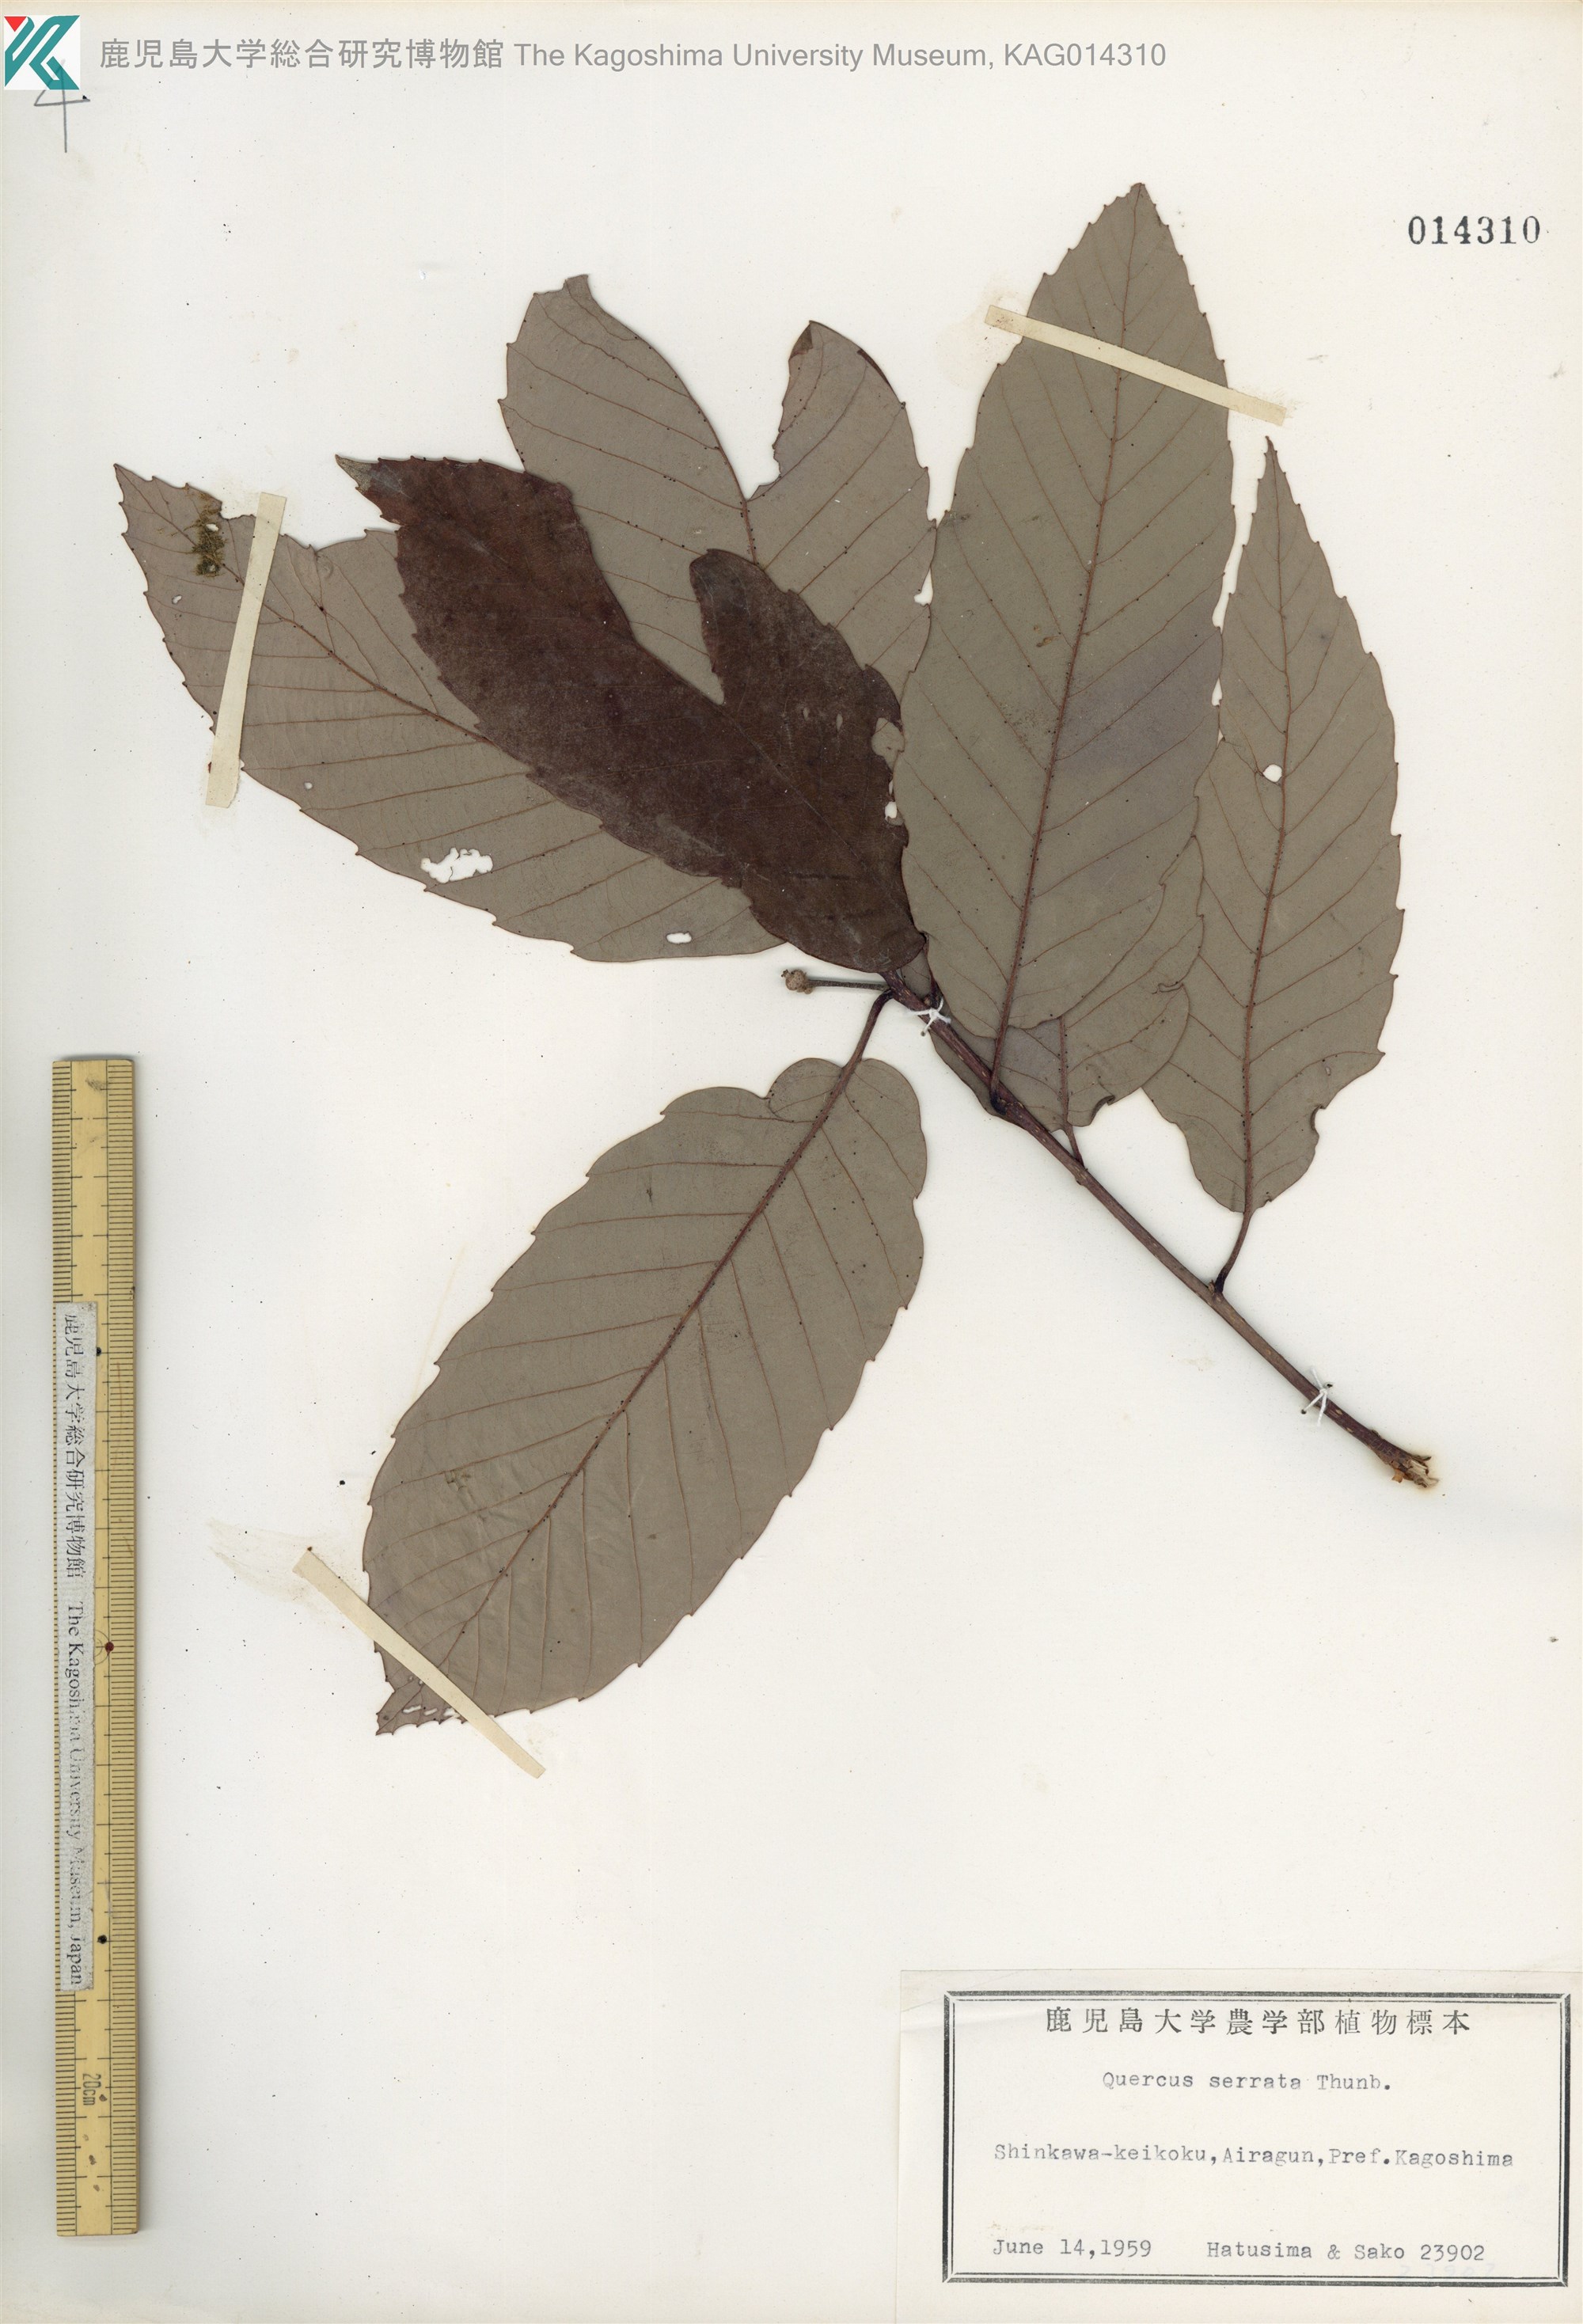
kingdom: Plantae
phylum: Tracheophyta
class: Magnoliopsida
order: Fagales
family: Fagaceae
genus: Quercus
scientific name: Quercus serrata
